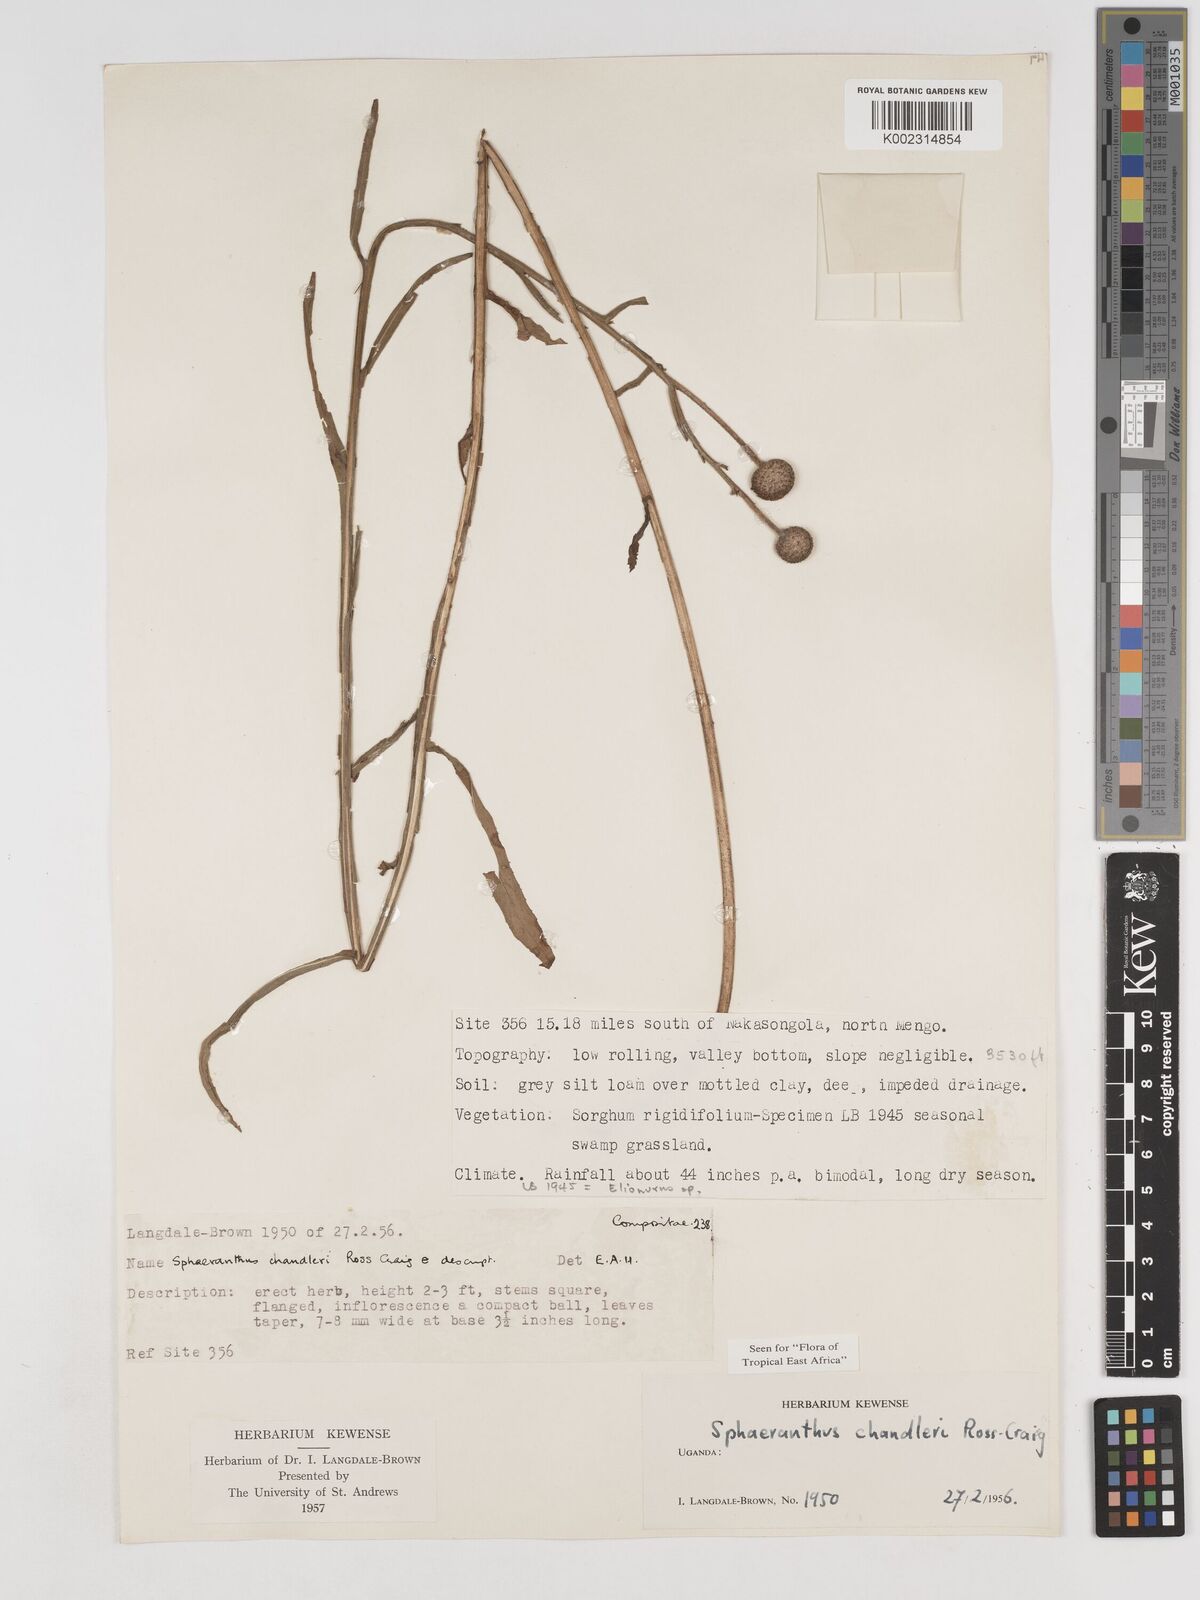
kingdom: Plantae
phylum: Tracheophyta
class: Magnoliopsida
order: Asterales
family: Asteraceae
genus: Sphaeranthus
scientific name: Sphaeranthus chandleri
